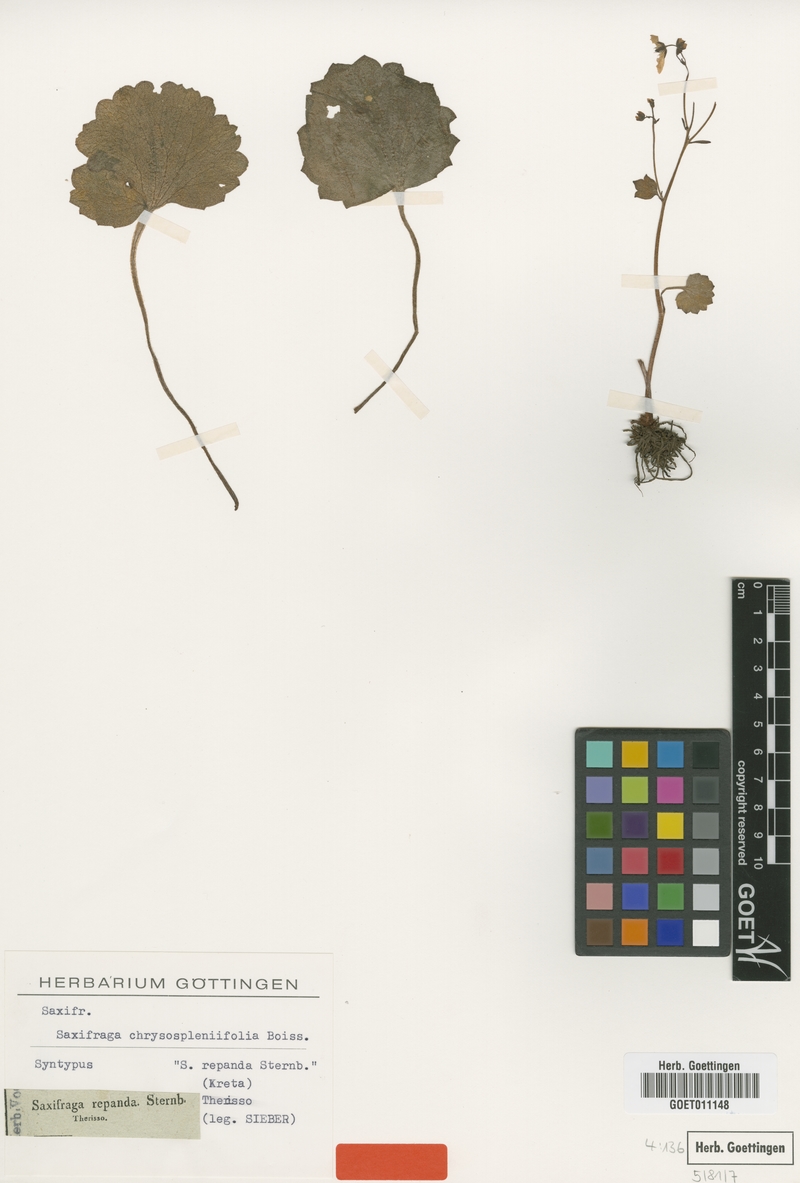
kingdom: Plantae
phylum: Tracheophyta
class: Magnoliopsida
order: Saxifragales
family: Saxifragaceae
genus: Saxifraga
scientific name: Saxifraga rotundifolia
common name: Round-leaved saxifrage
